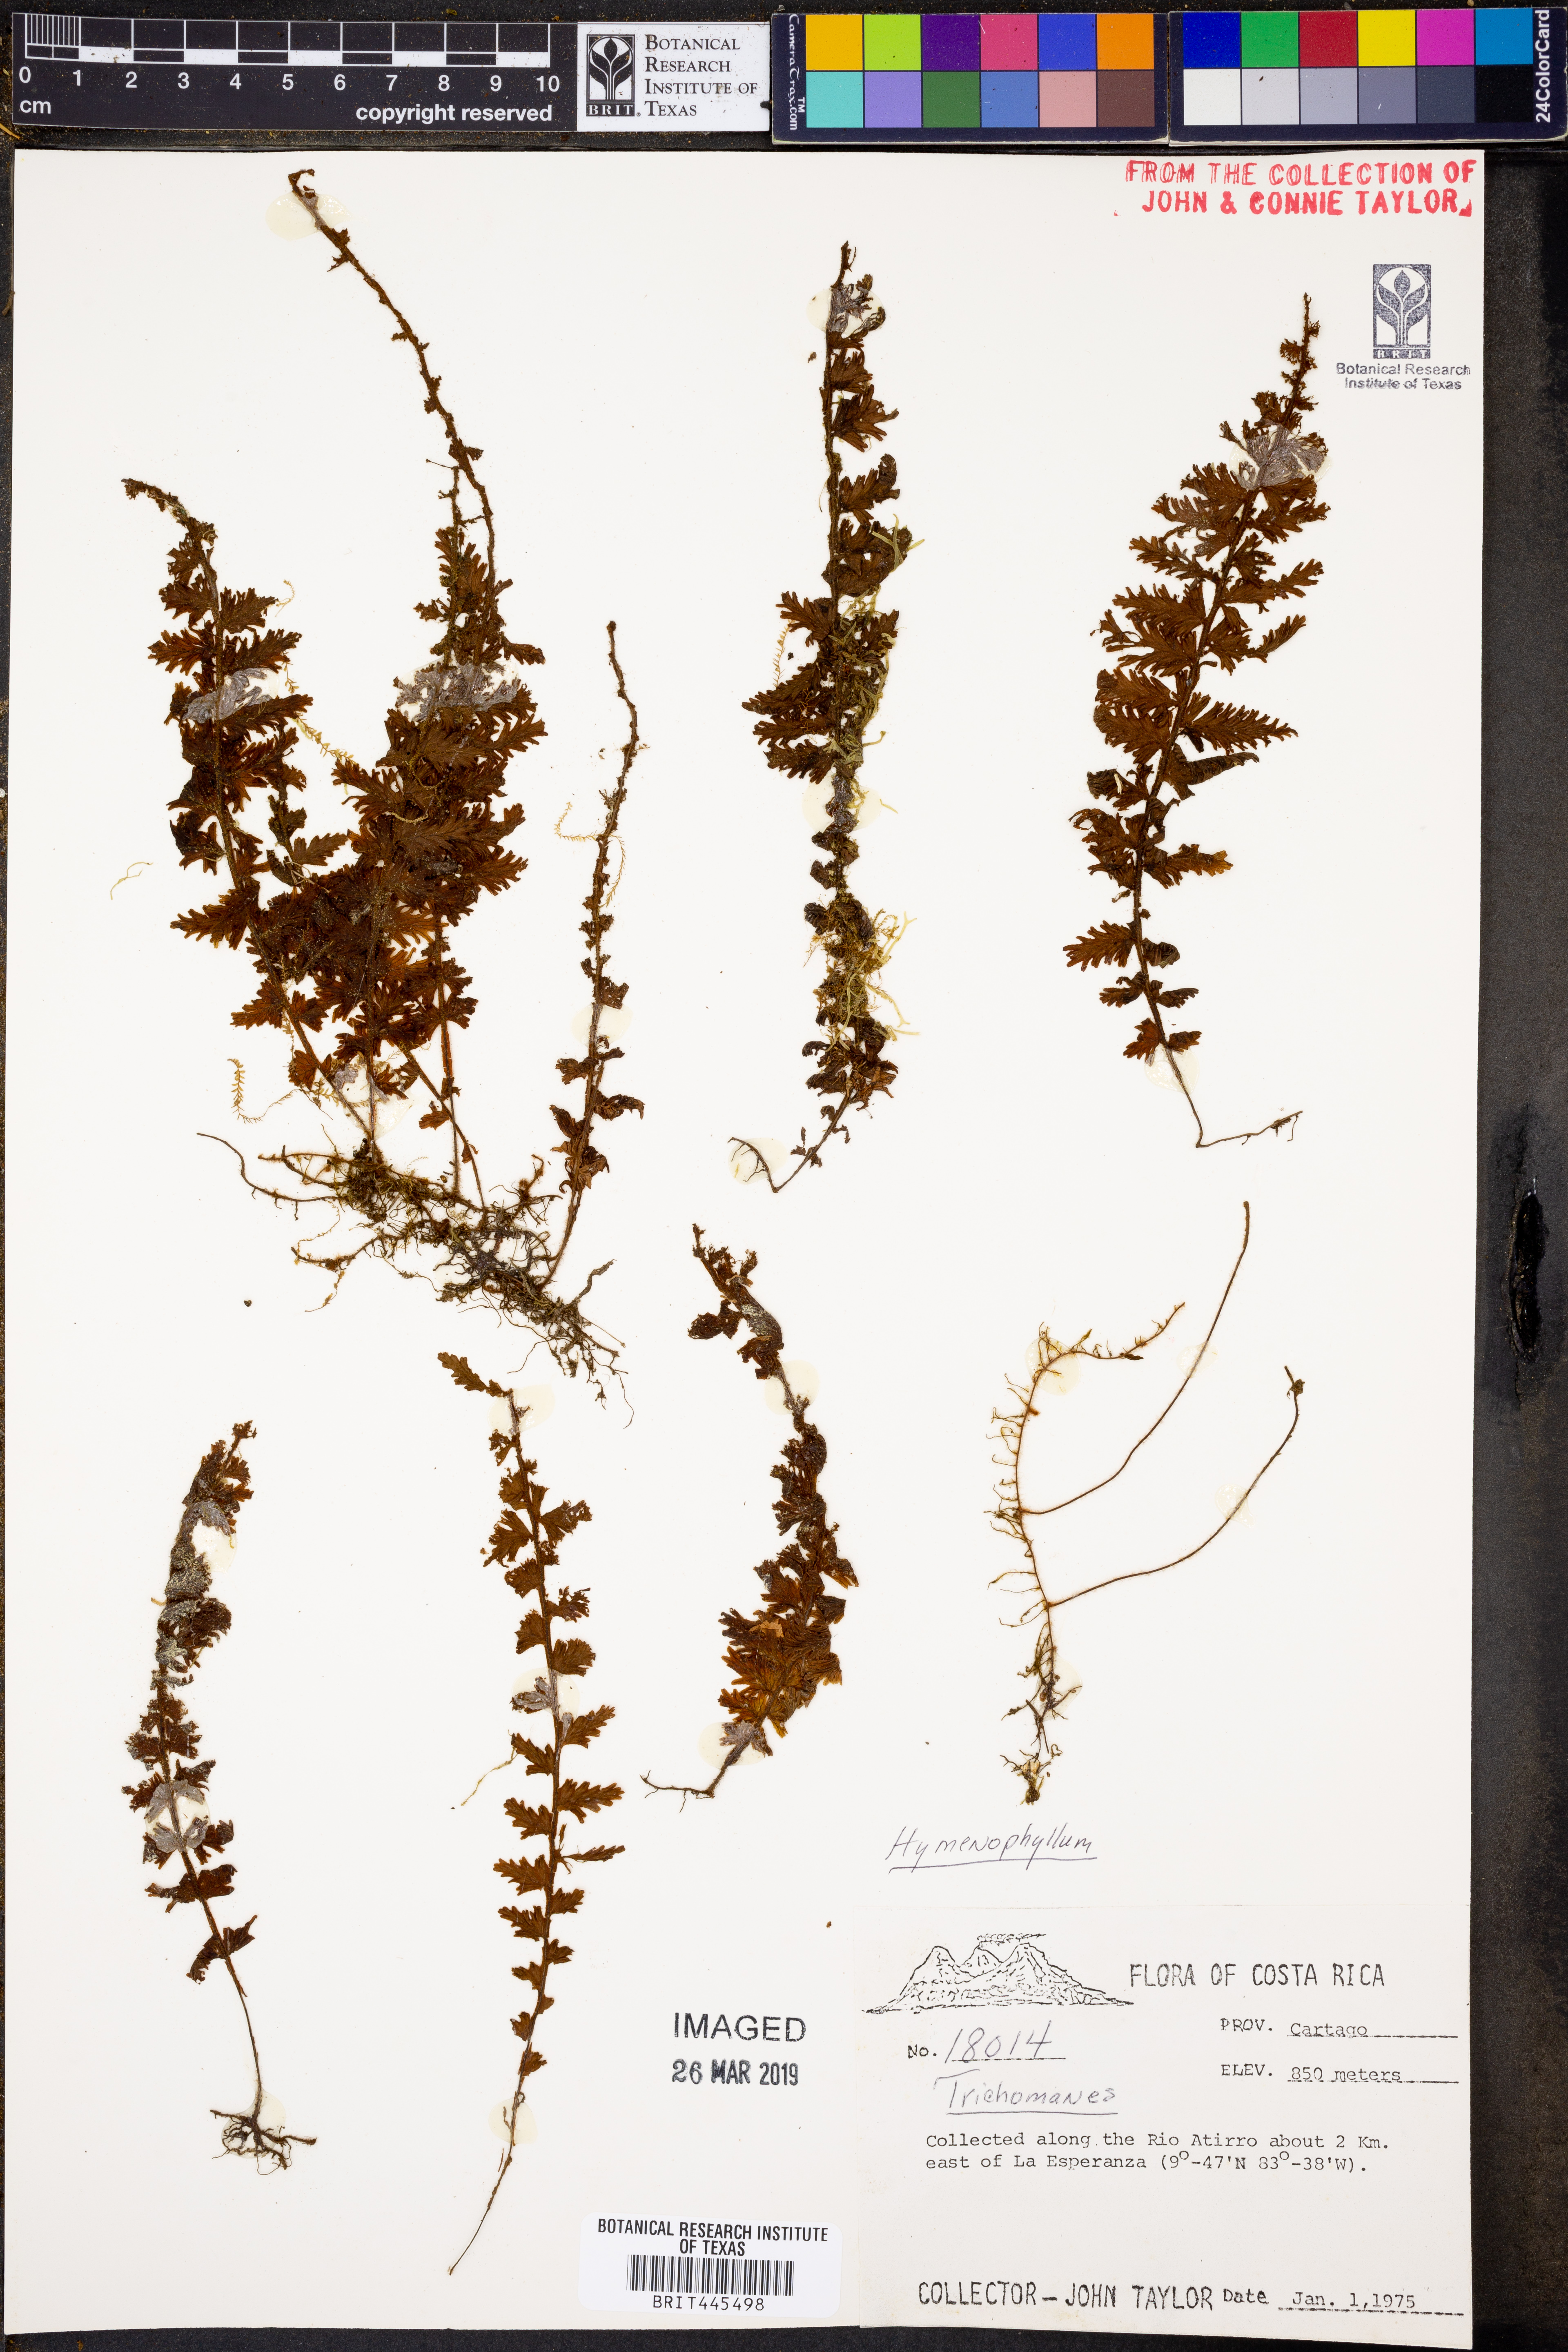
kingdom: Plantae
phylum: Tracheophyta
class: Polypodiopsida
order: Hymenophyllales
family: Hymenophyllaceae
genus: Hymenophyllum
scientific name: Hymenophyllum
